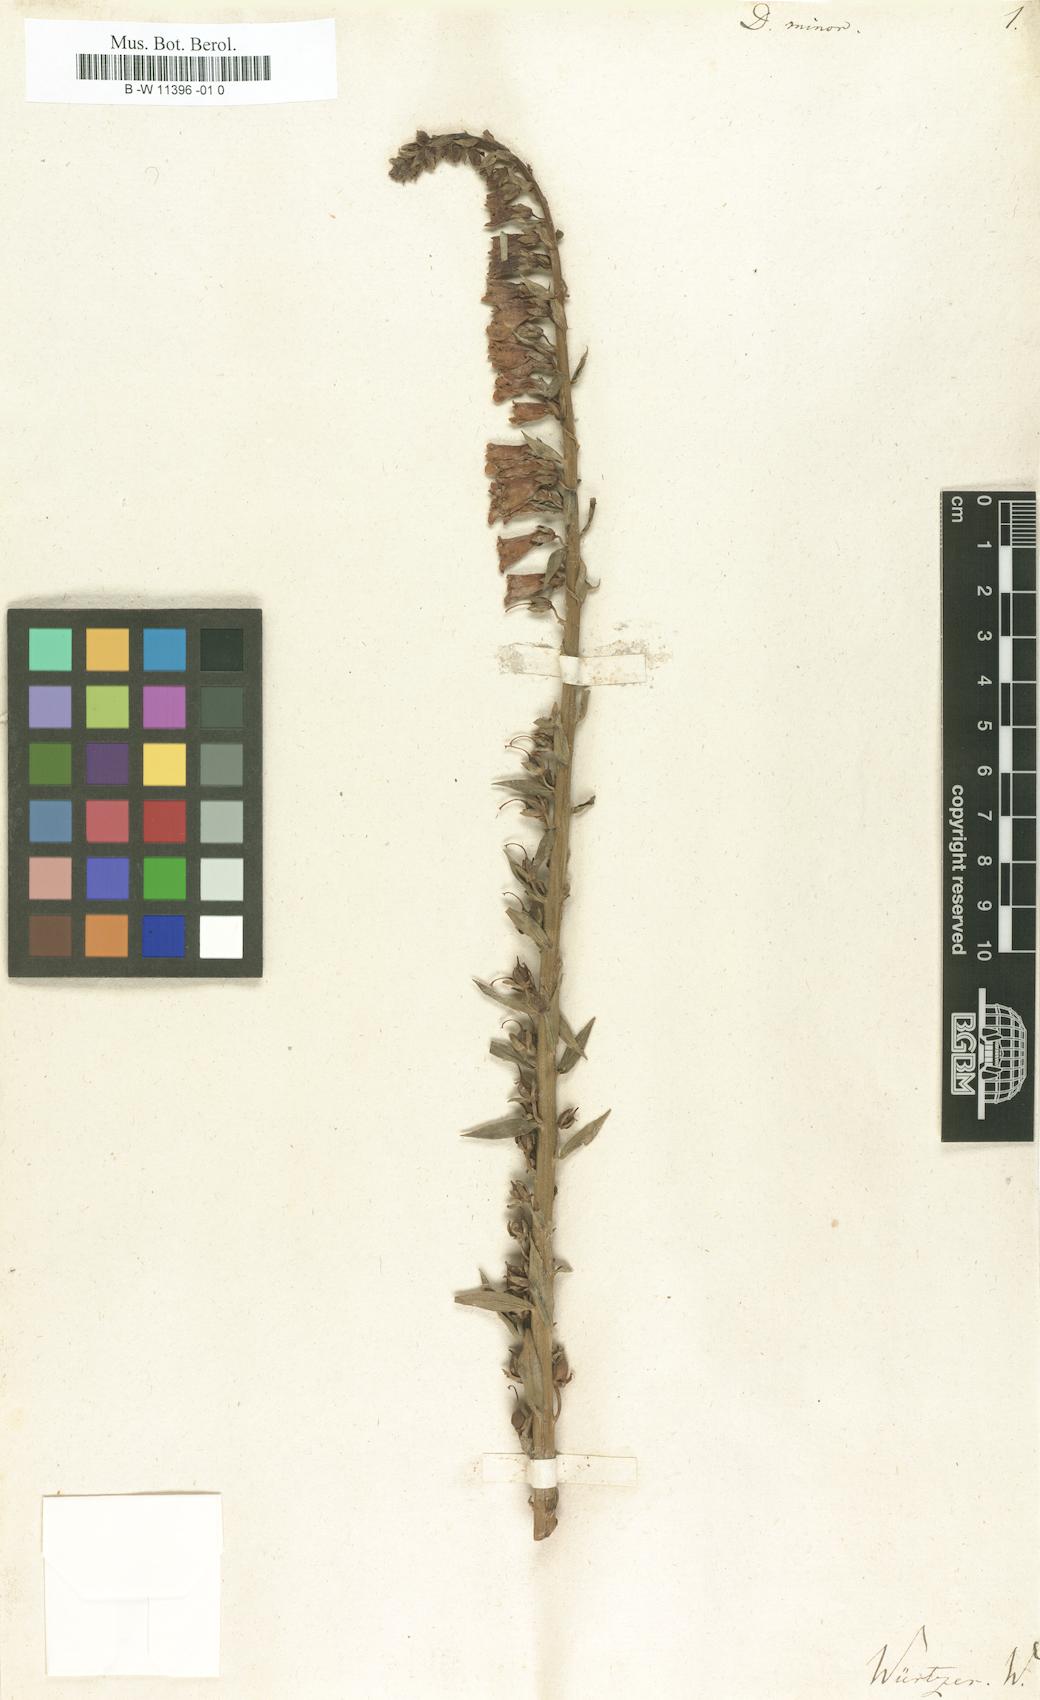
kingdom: Plantae
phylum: Tracheophyta
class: Magnoliopsida
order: Lamiales
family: Plantaginaceae
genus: Digitalis
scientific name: Digitalis minor
